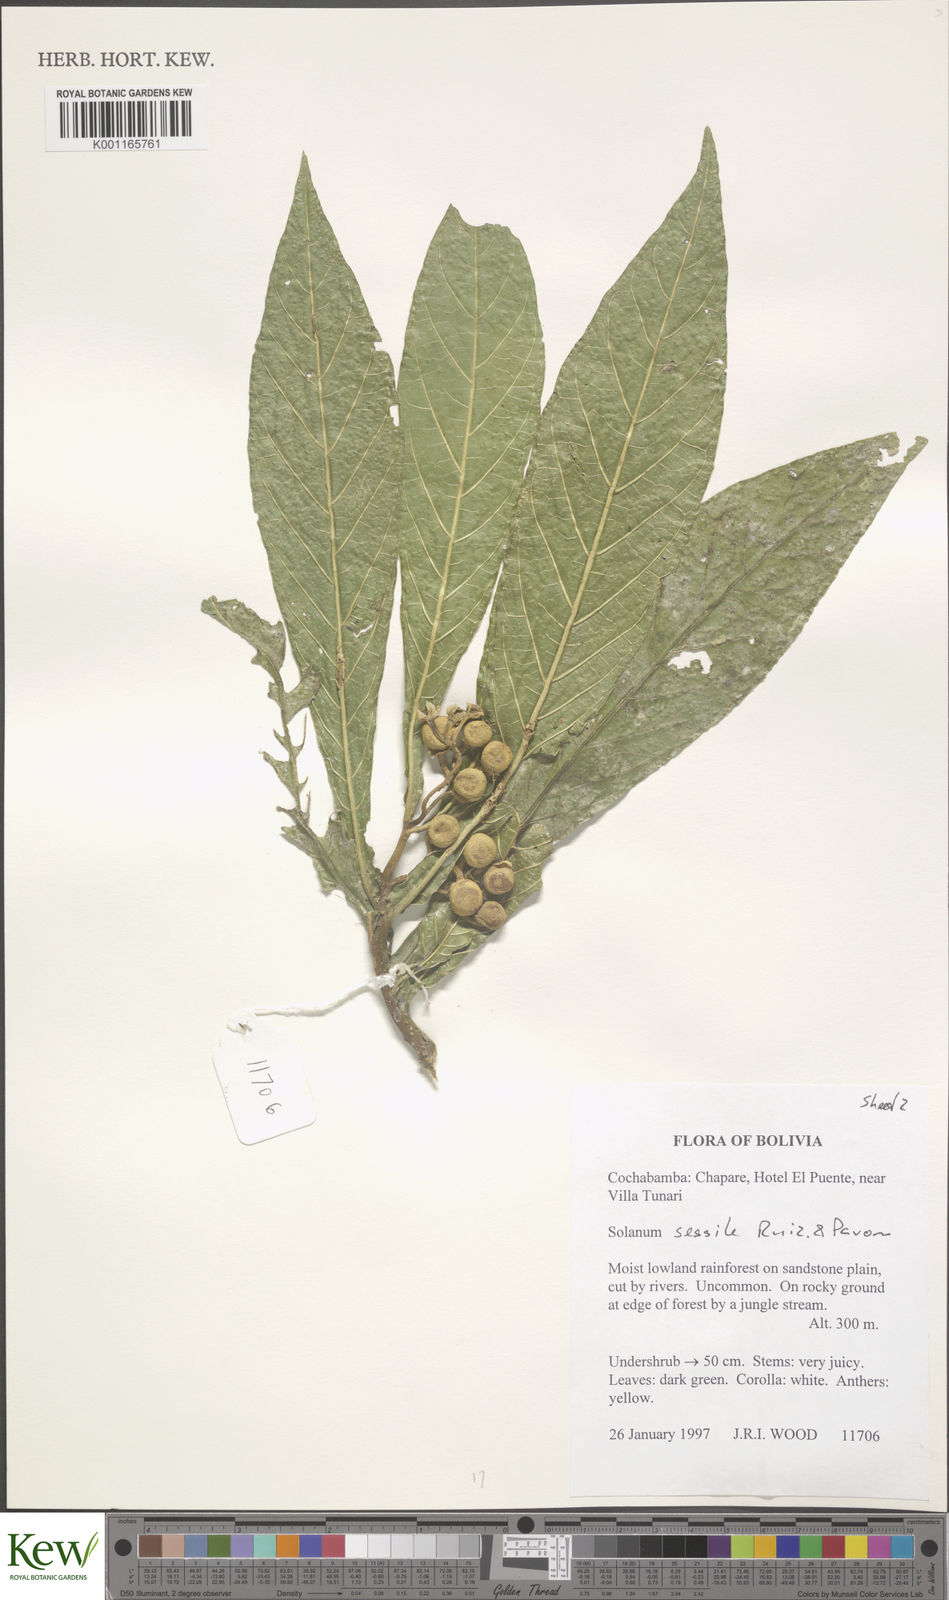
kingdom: Plantae
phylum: Tracheophyta
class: Magnoliopsida
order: Solanales
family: Solanaceae
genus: Solanum
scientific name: Solanum sessile
